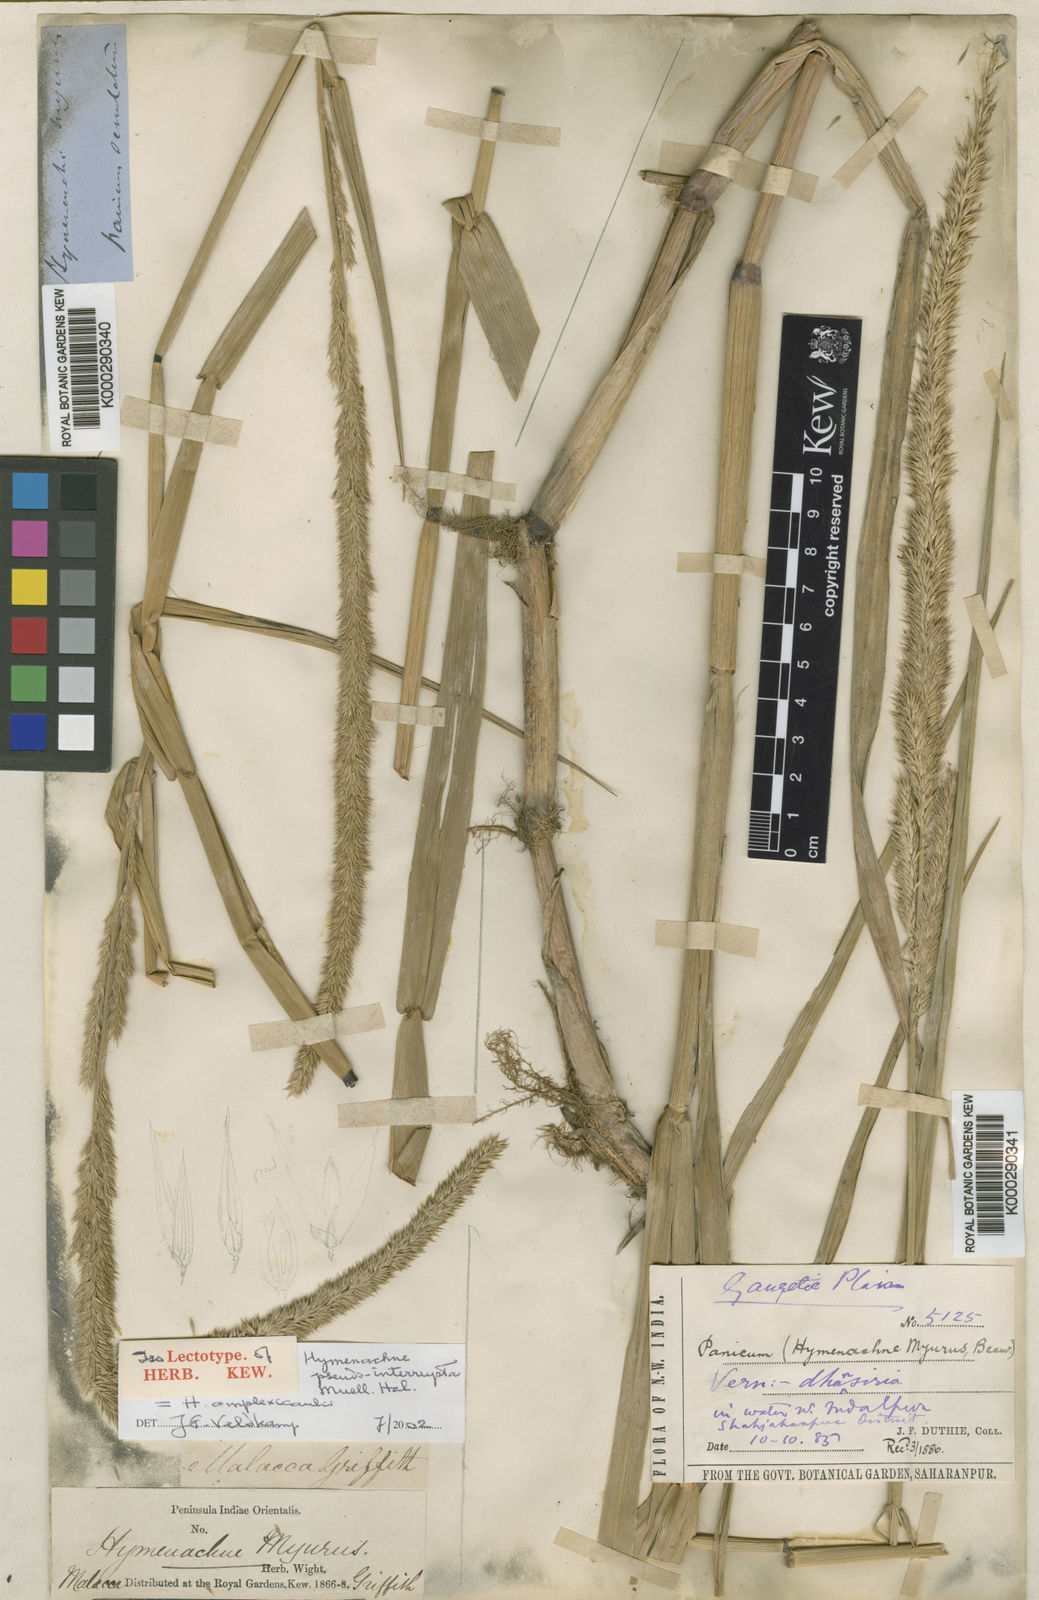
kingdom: Plantae
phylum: Tracheophyta
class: Liliopsida
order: Poales
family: Poaceae
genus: Hymenachne
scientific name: Hymenachne amplexicaulis
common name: Olive hymenachne
